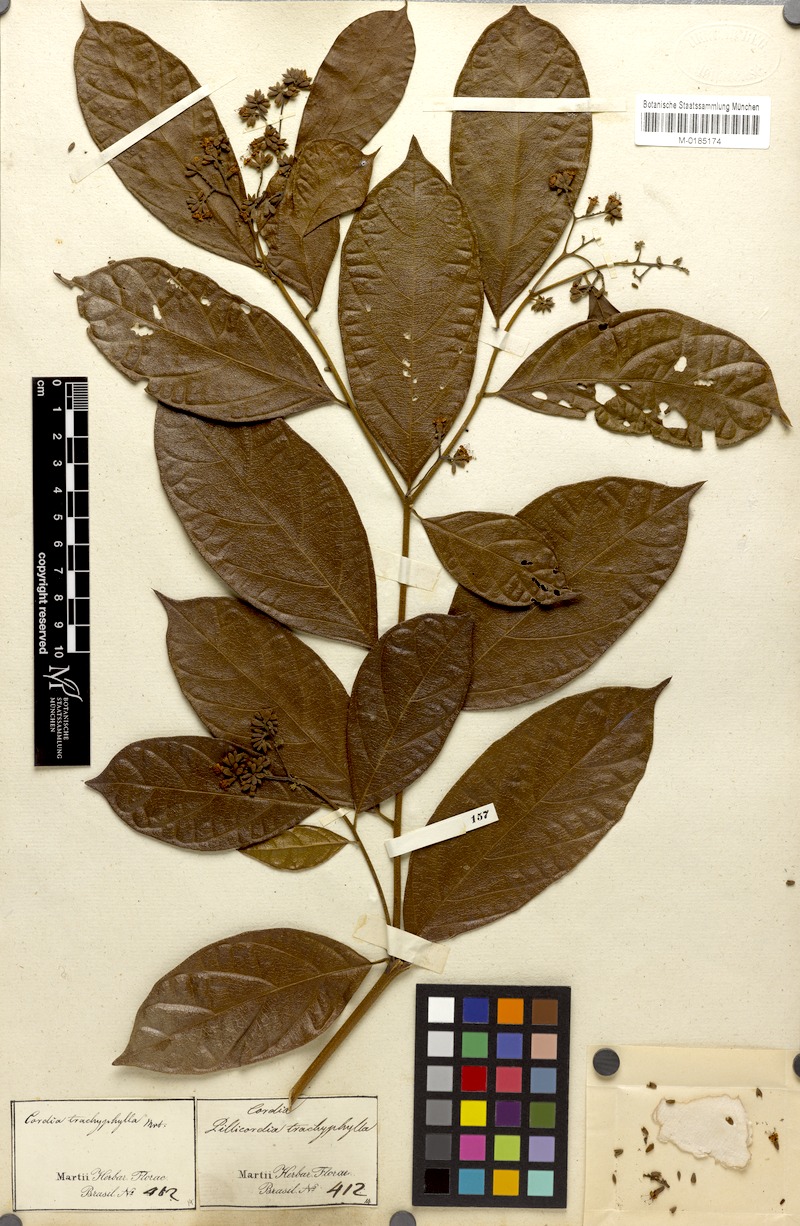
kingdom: Plantae
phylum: Tracheophyta
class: Magnoliopsida
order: Boraginales
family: Cordiaceae
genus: Cordia
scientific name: Cordia trachyphylla
